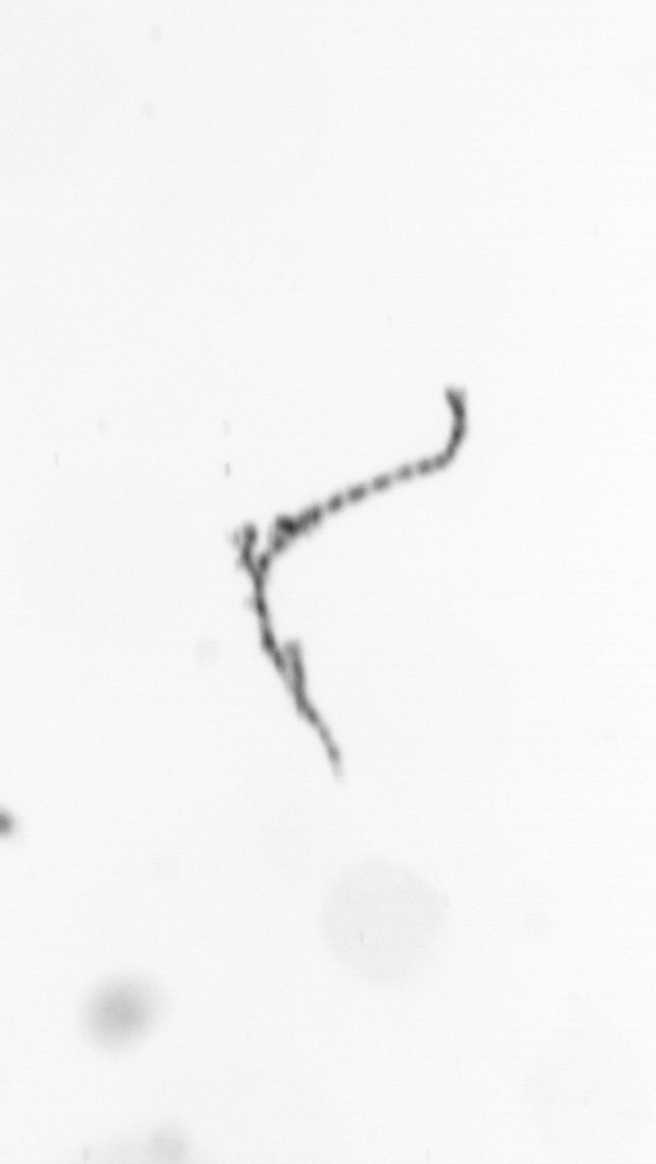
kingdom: Chromista
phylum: Ochrophyta
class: Bacillariophyceae
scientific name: Bacillariophyceae
